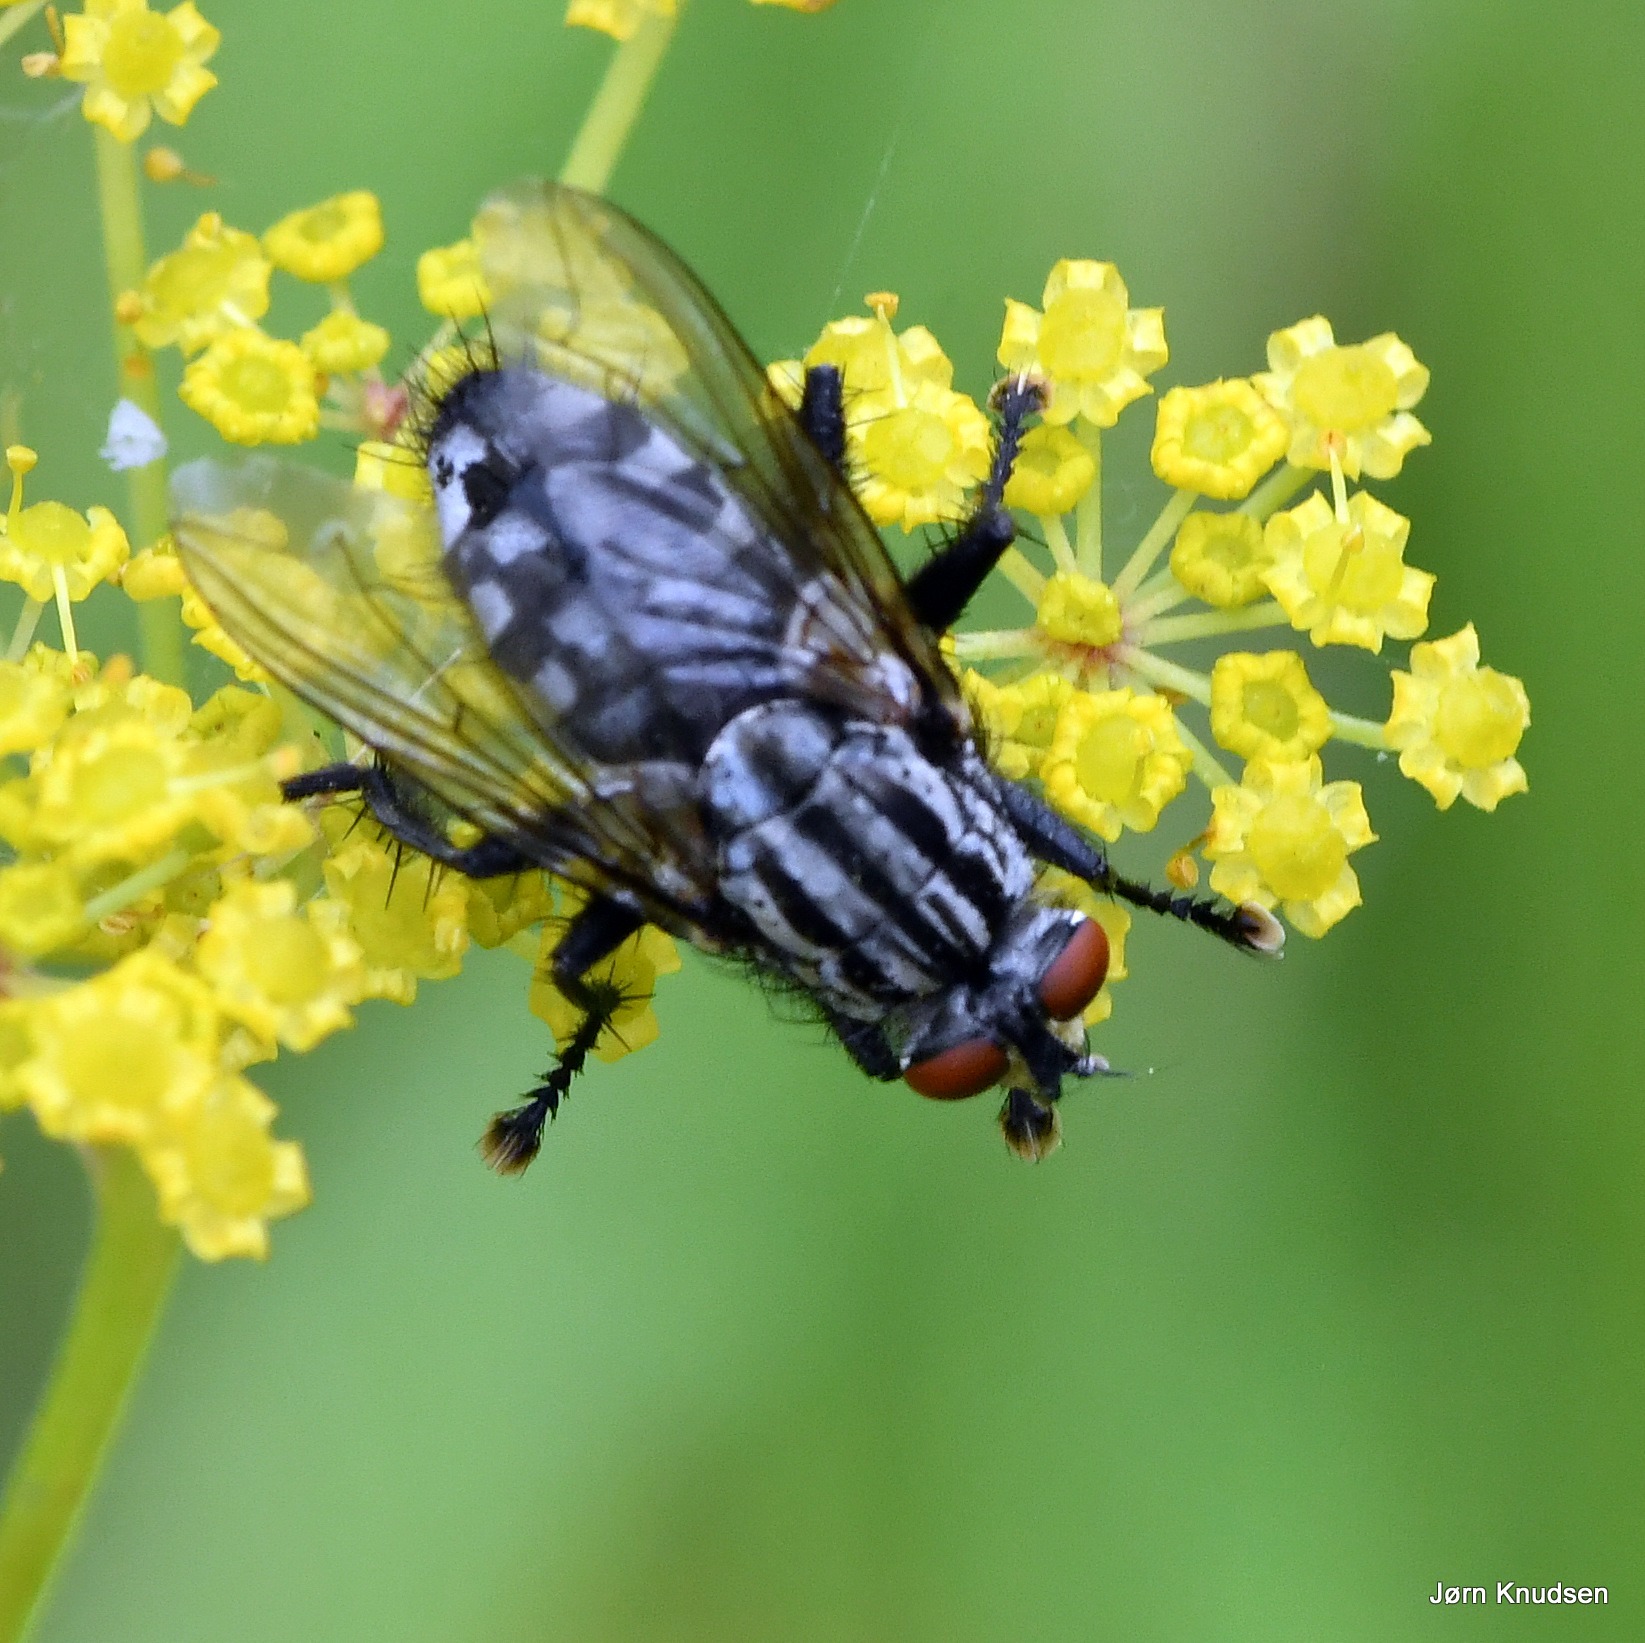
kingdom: Animalia
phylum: Arthropoda
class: Insecta
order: Diptera
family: Sarcophagidae
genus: Sarcophaga
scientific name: Sarcophaga
